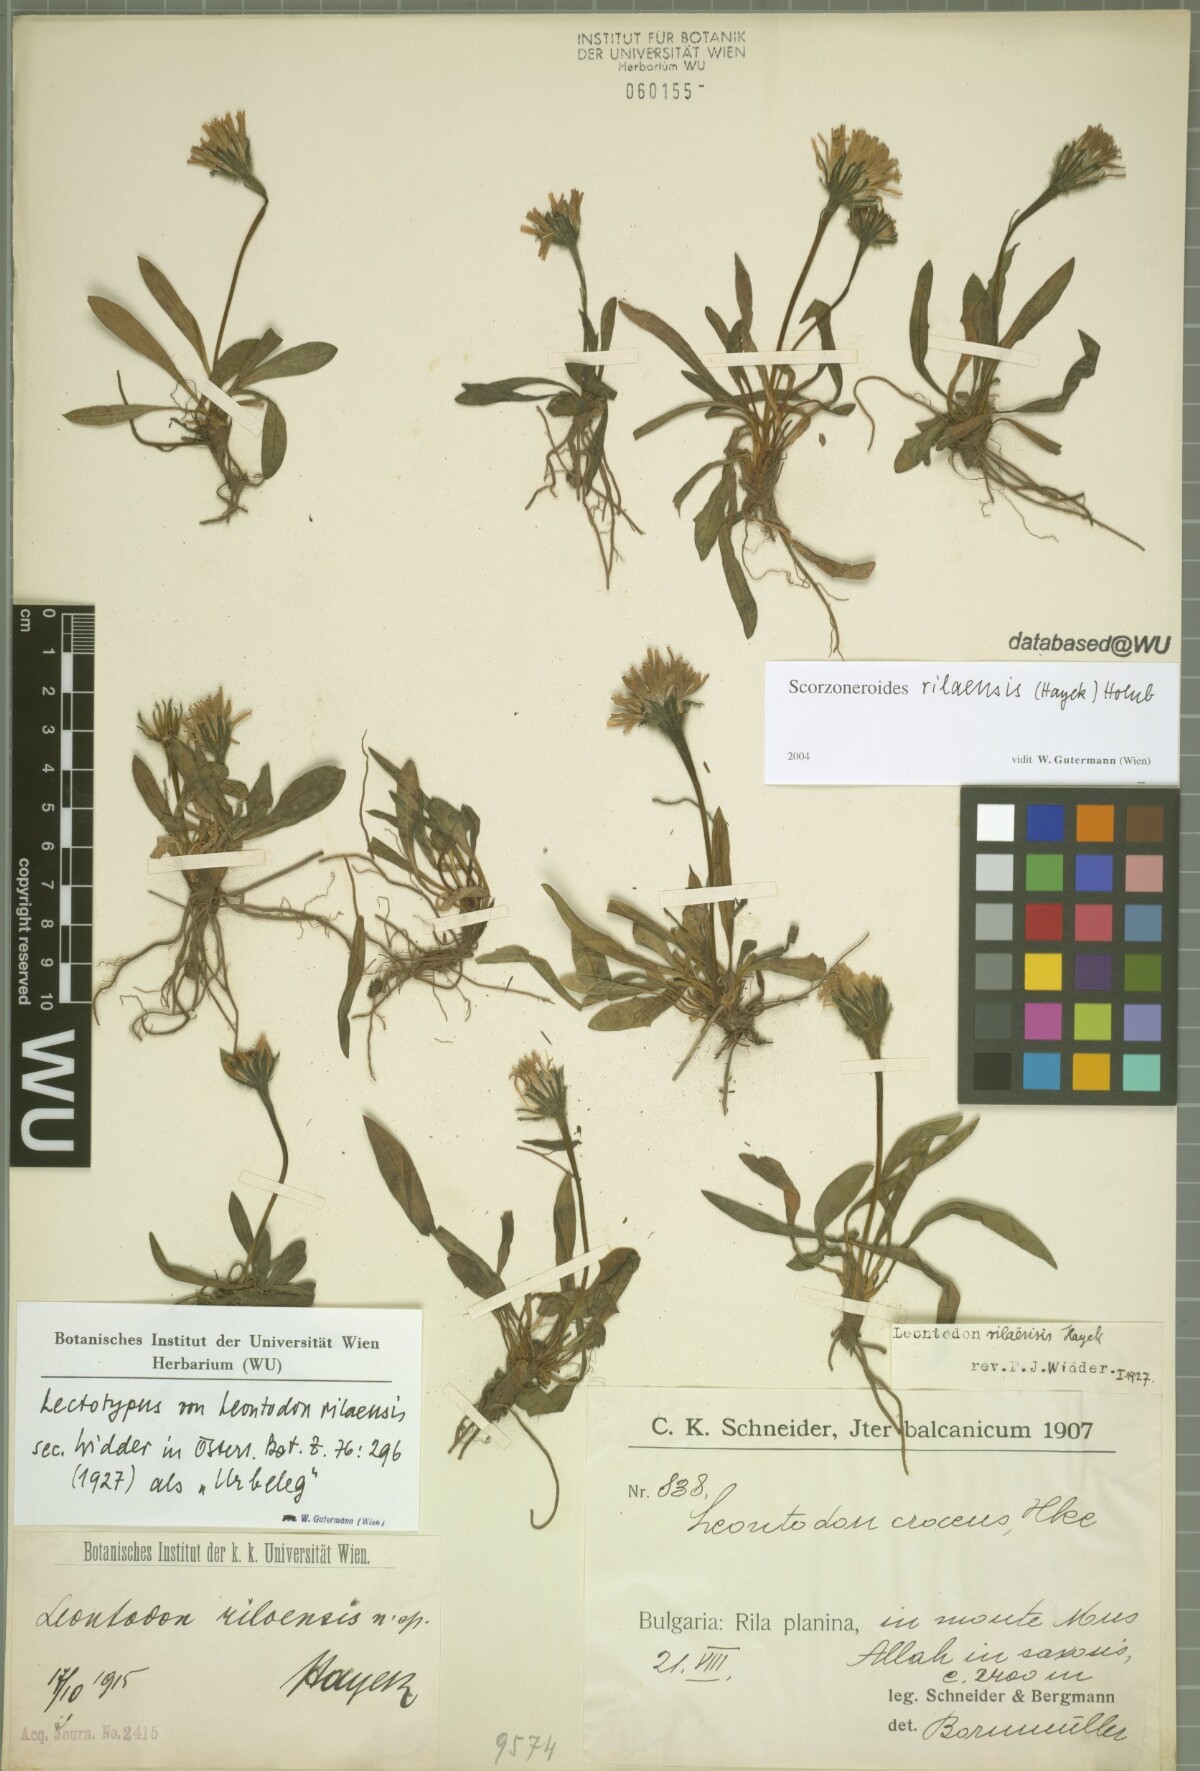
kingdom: Plantae
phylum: Tracheophyta
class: Magnoliopsida
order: Asterales
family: Asteraceae
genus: Scorzoneroides
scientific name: Scorzoneroides rilaensis
